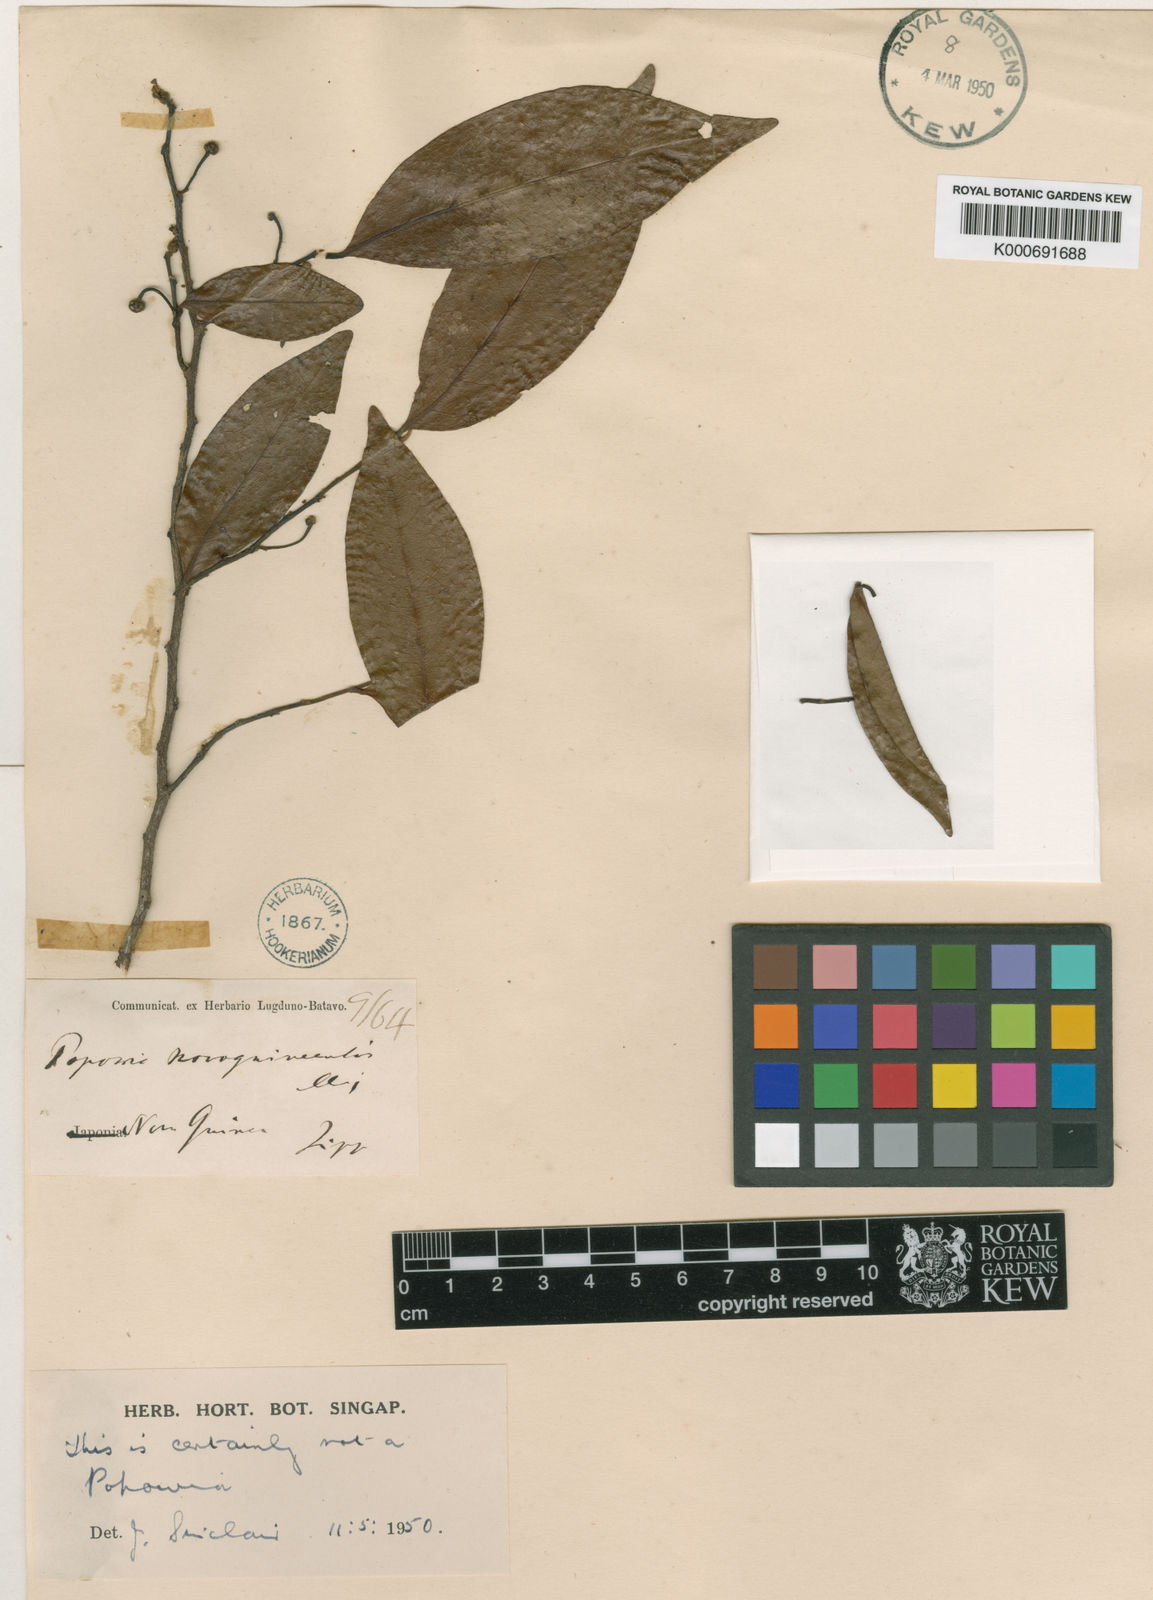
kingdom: Plantae
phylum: Tracheophyta
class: Magnoliopsida
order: Magnoliales
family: Annonaceae
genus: Hubera
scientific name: Hubera nitidissima
